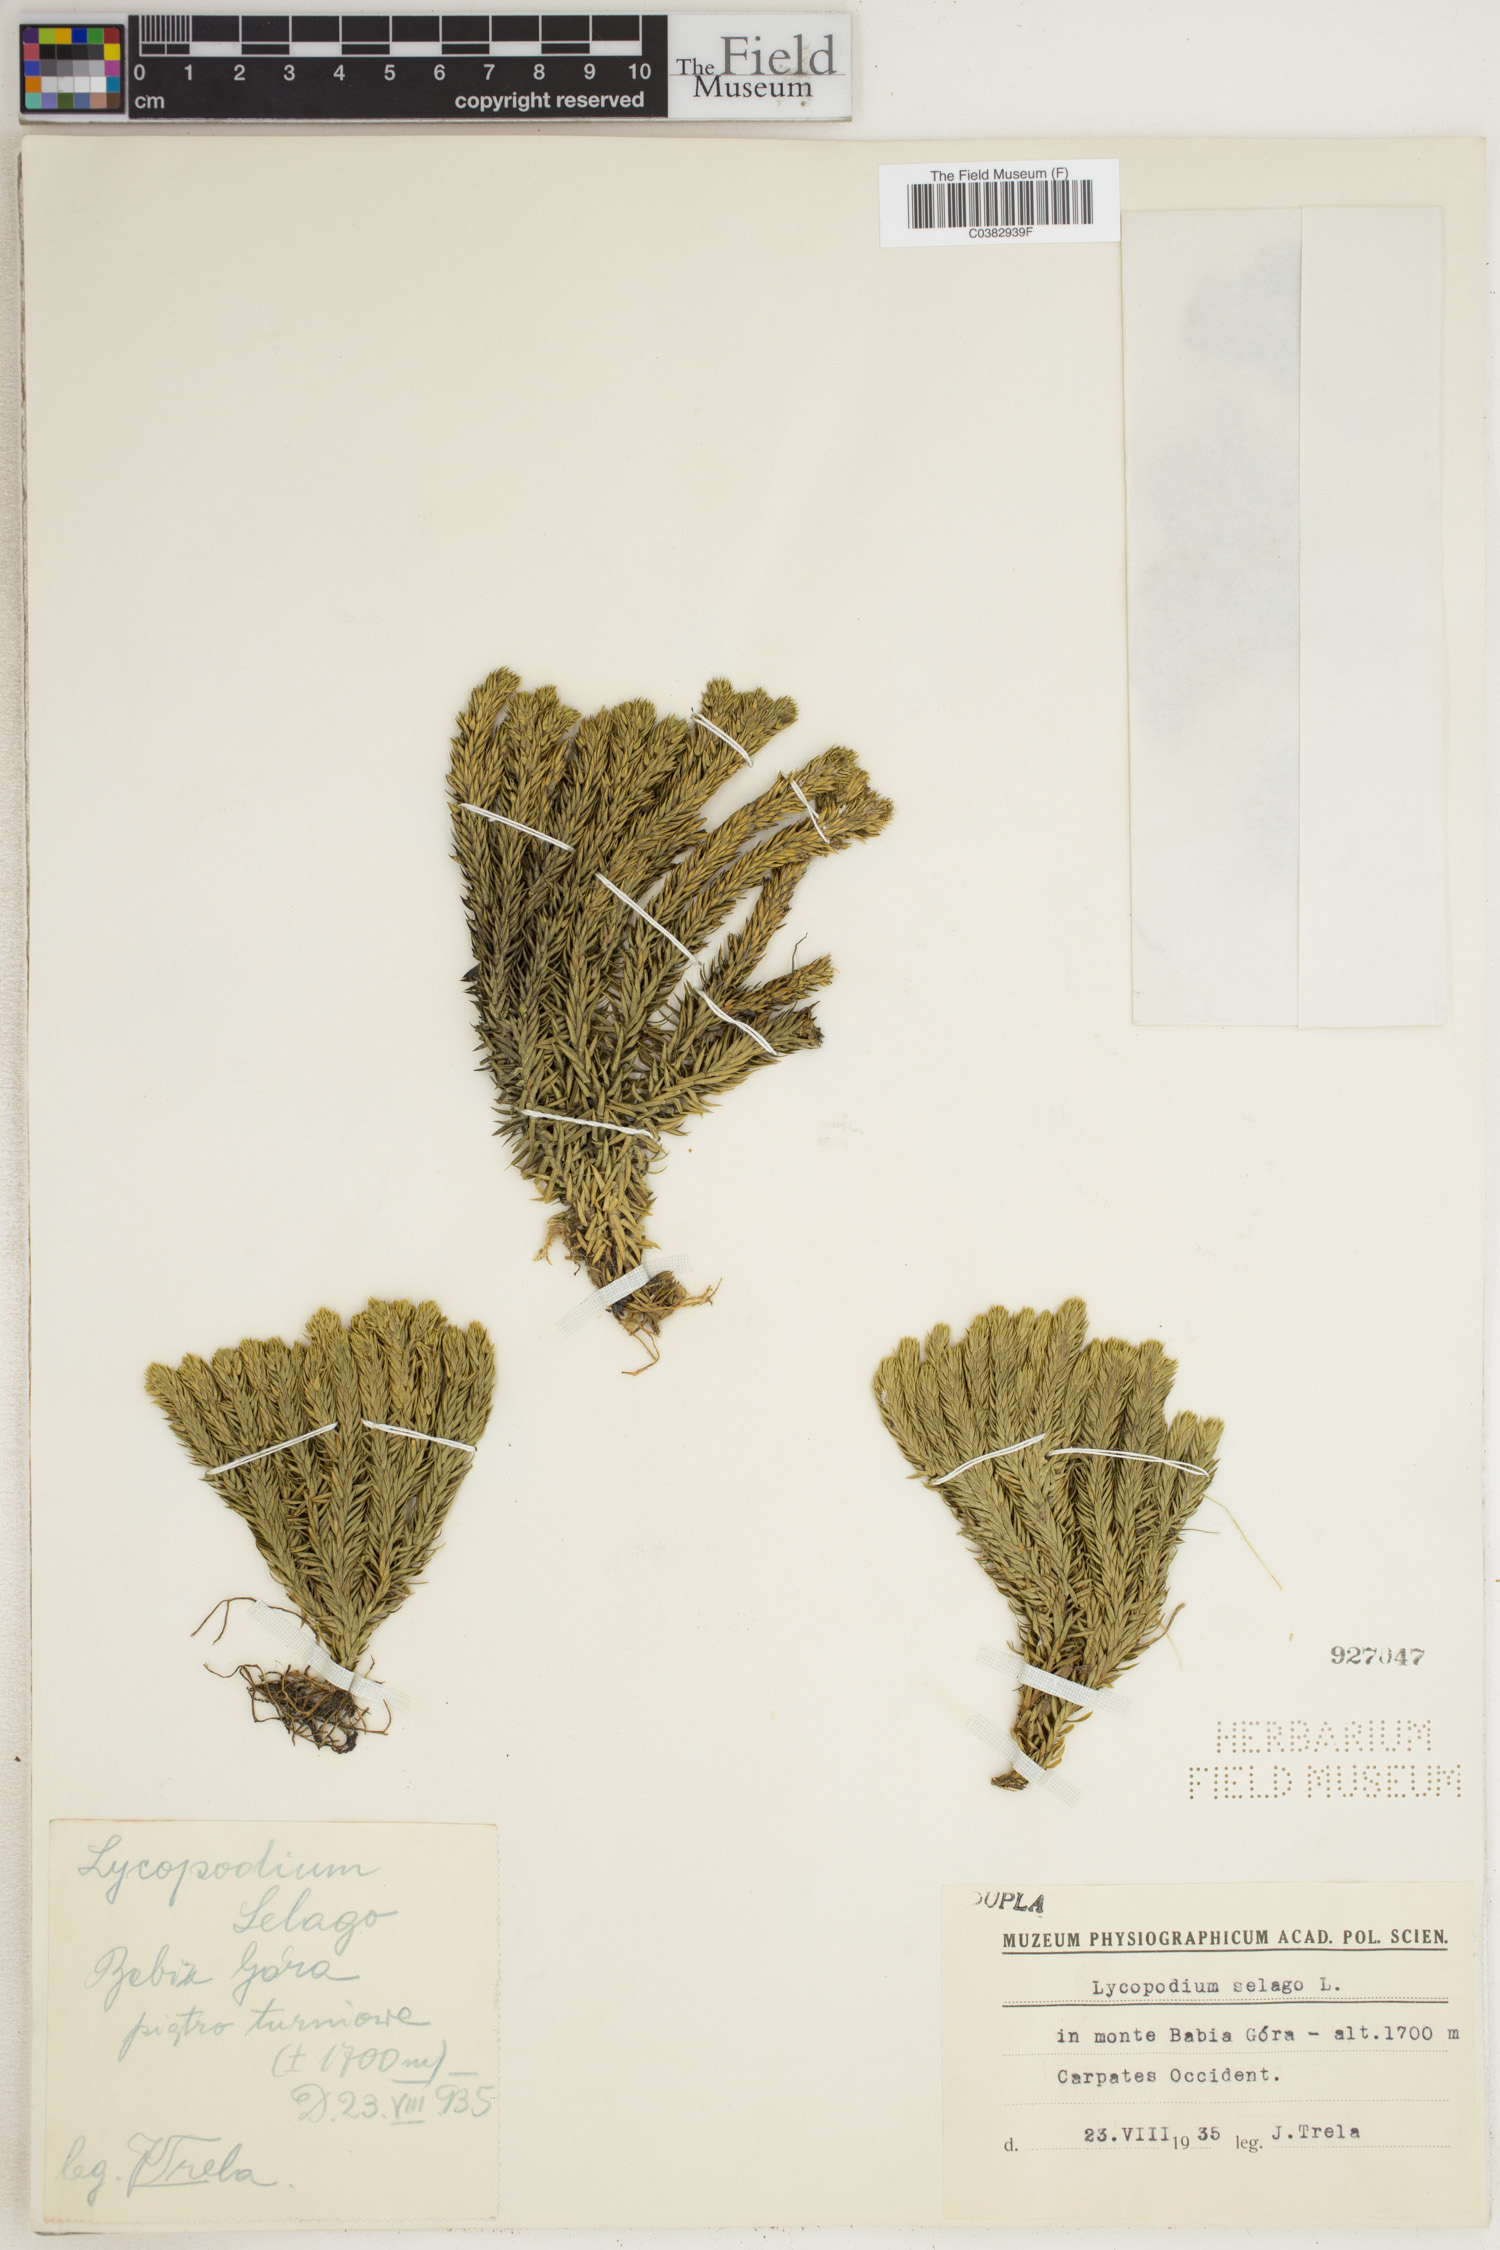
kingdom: Plantae
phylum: Tracheophyta
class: Lycopodiopsida
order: Lycopodiales
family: Lycopodiaceae
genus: Huperzia
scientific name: Huperzia selago
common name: Northern firmoss
